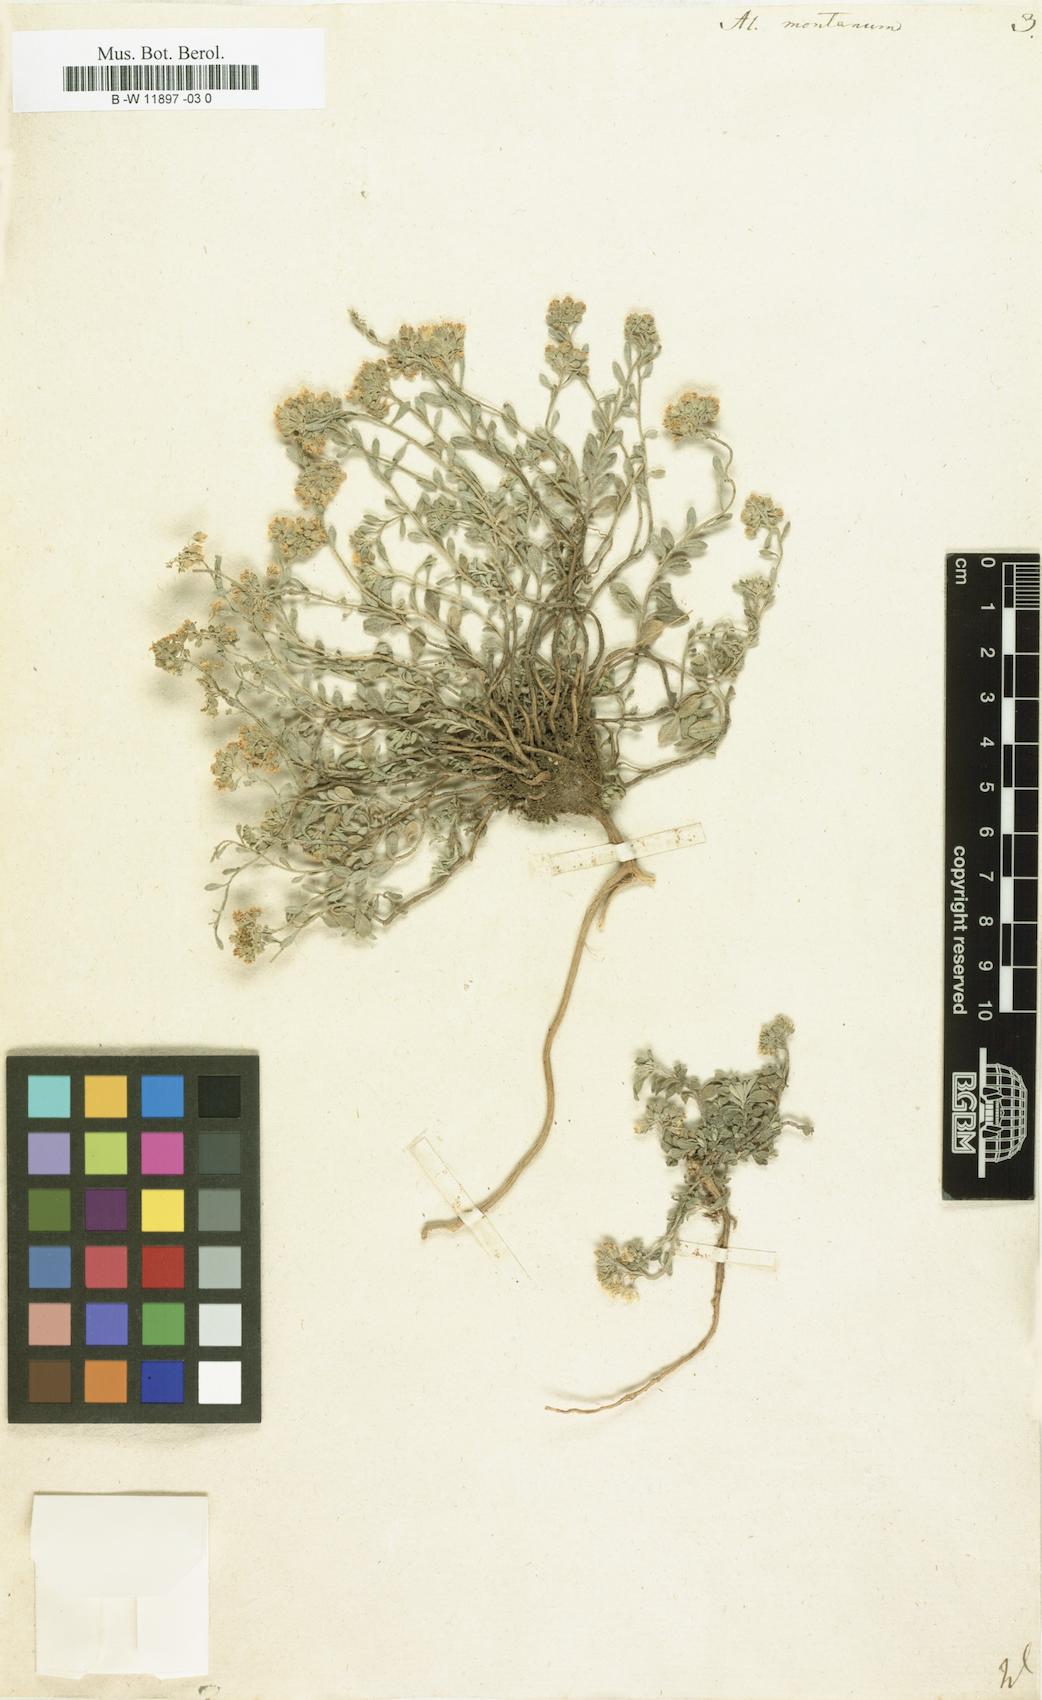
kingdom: Plantae
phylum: Tracheophyta
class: Magnoliopsida
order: Brassicales
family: Brassicaceae
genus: Alyssum
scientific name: Alyssum montanum
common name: Mountain alison
